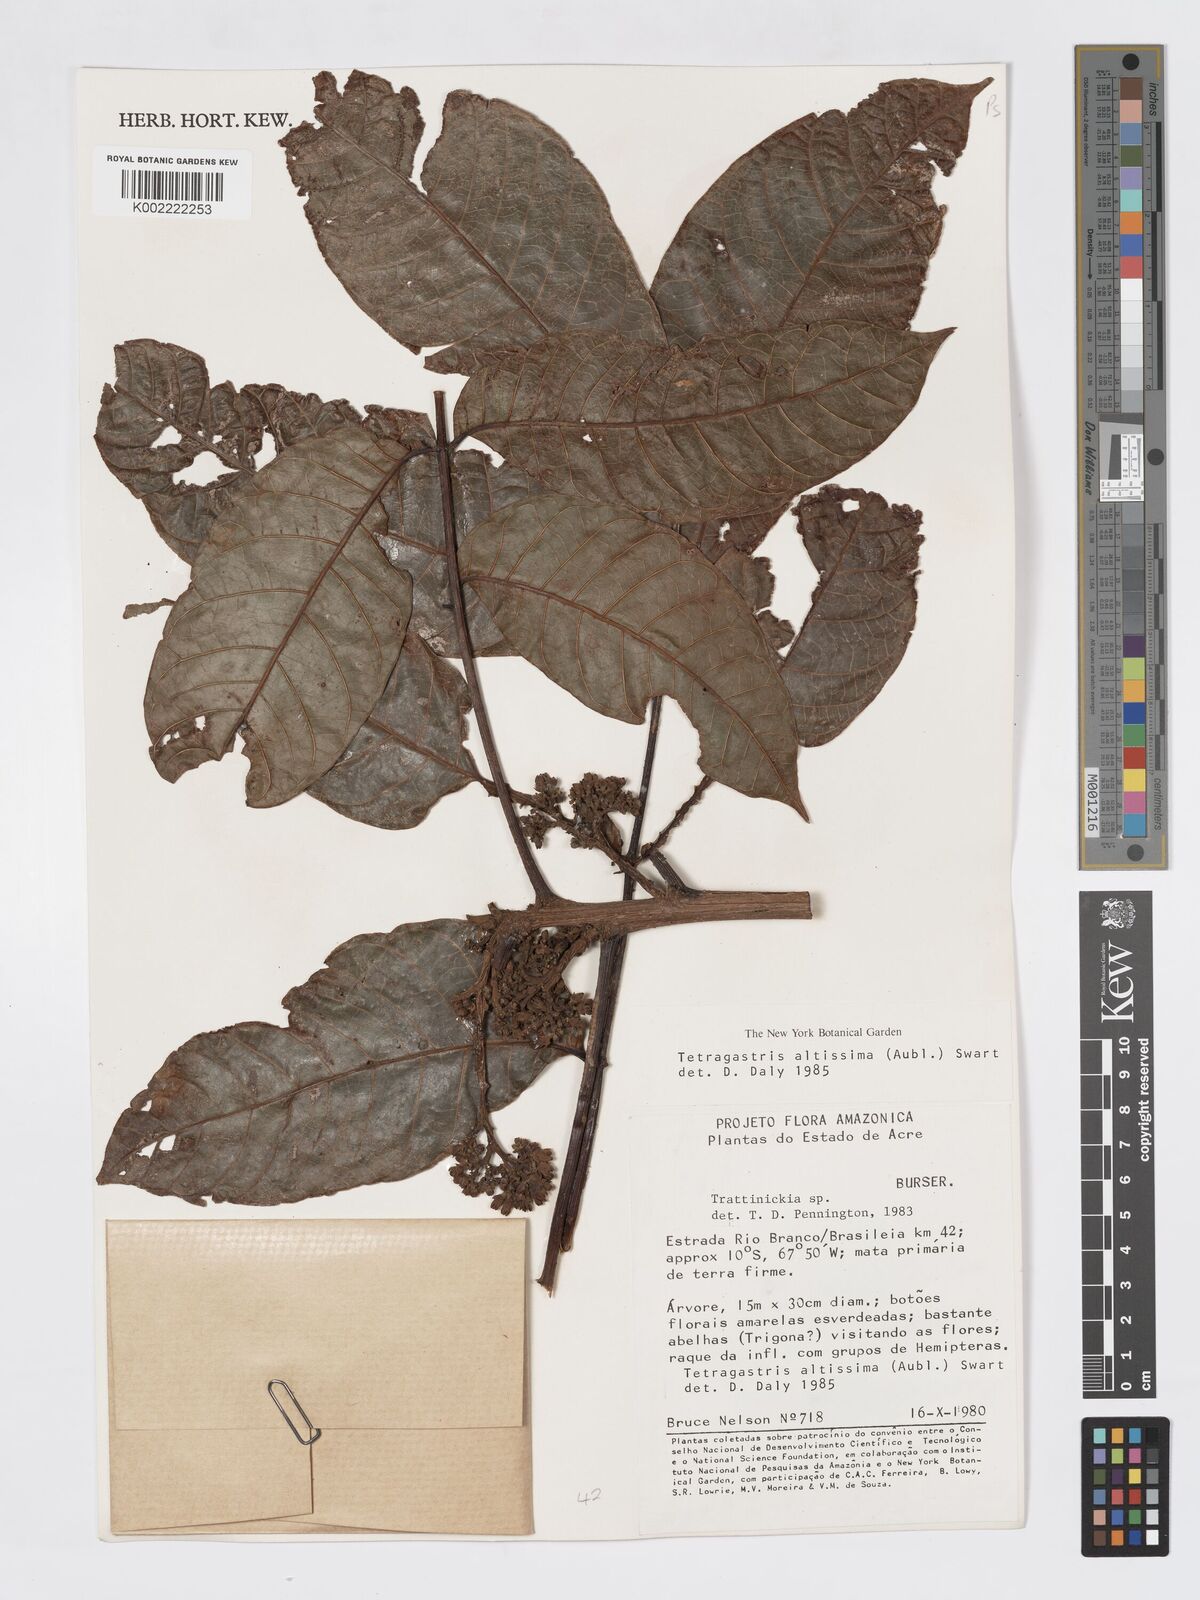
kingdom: Plantae
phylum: Tracheophyta
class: Magnoliopsida
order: Sapindales
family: Burseraceae
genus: Tetragastris
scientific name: Tetragastris altissima
